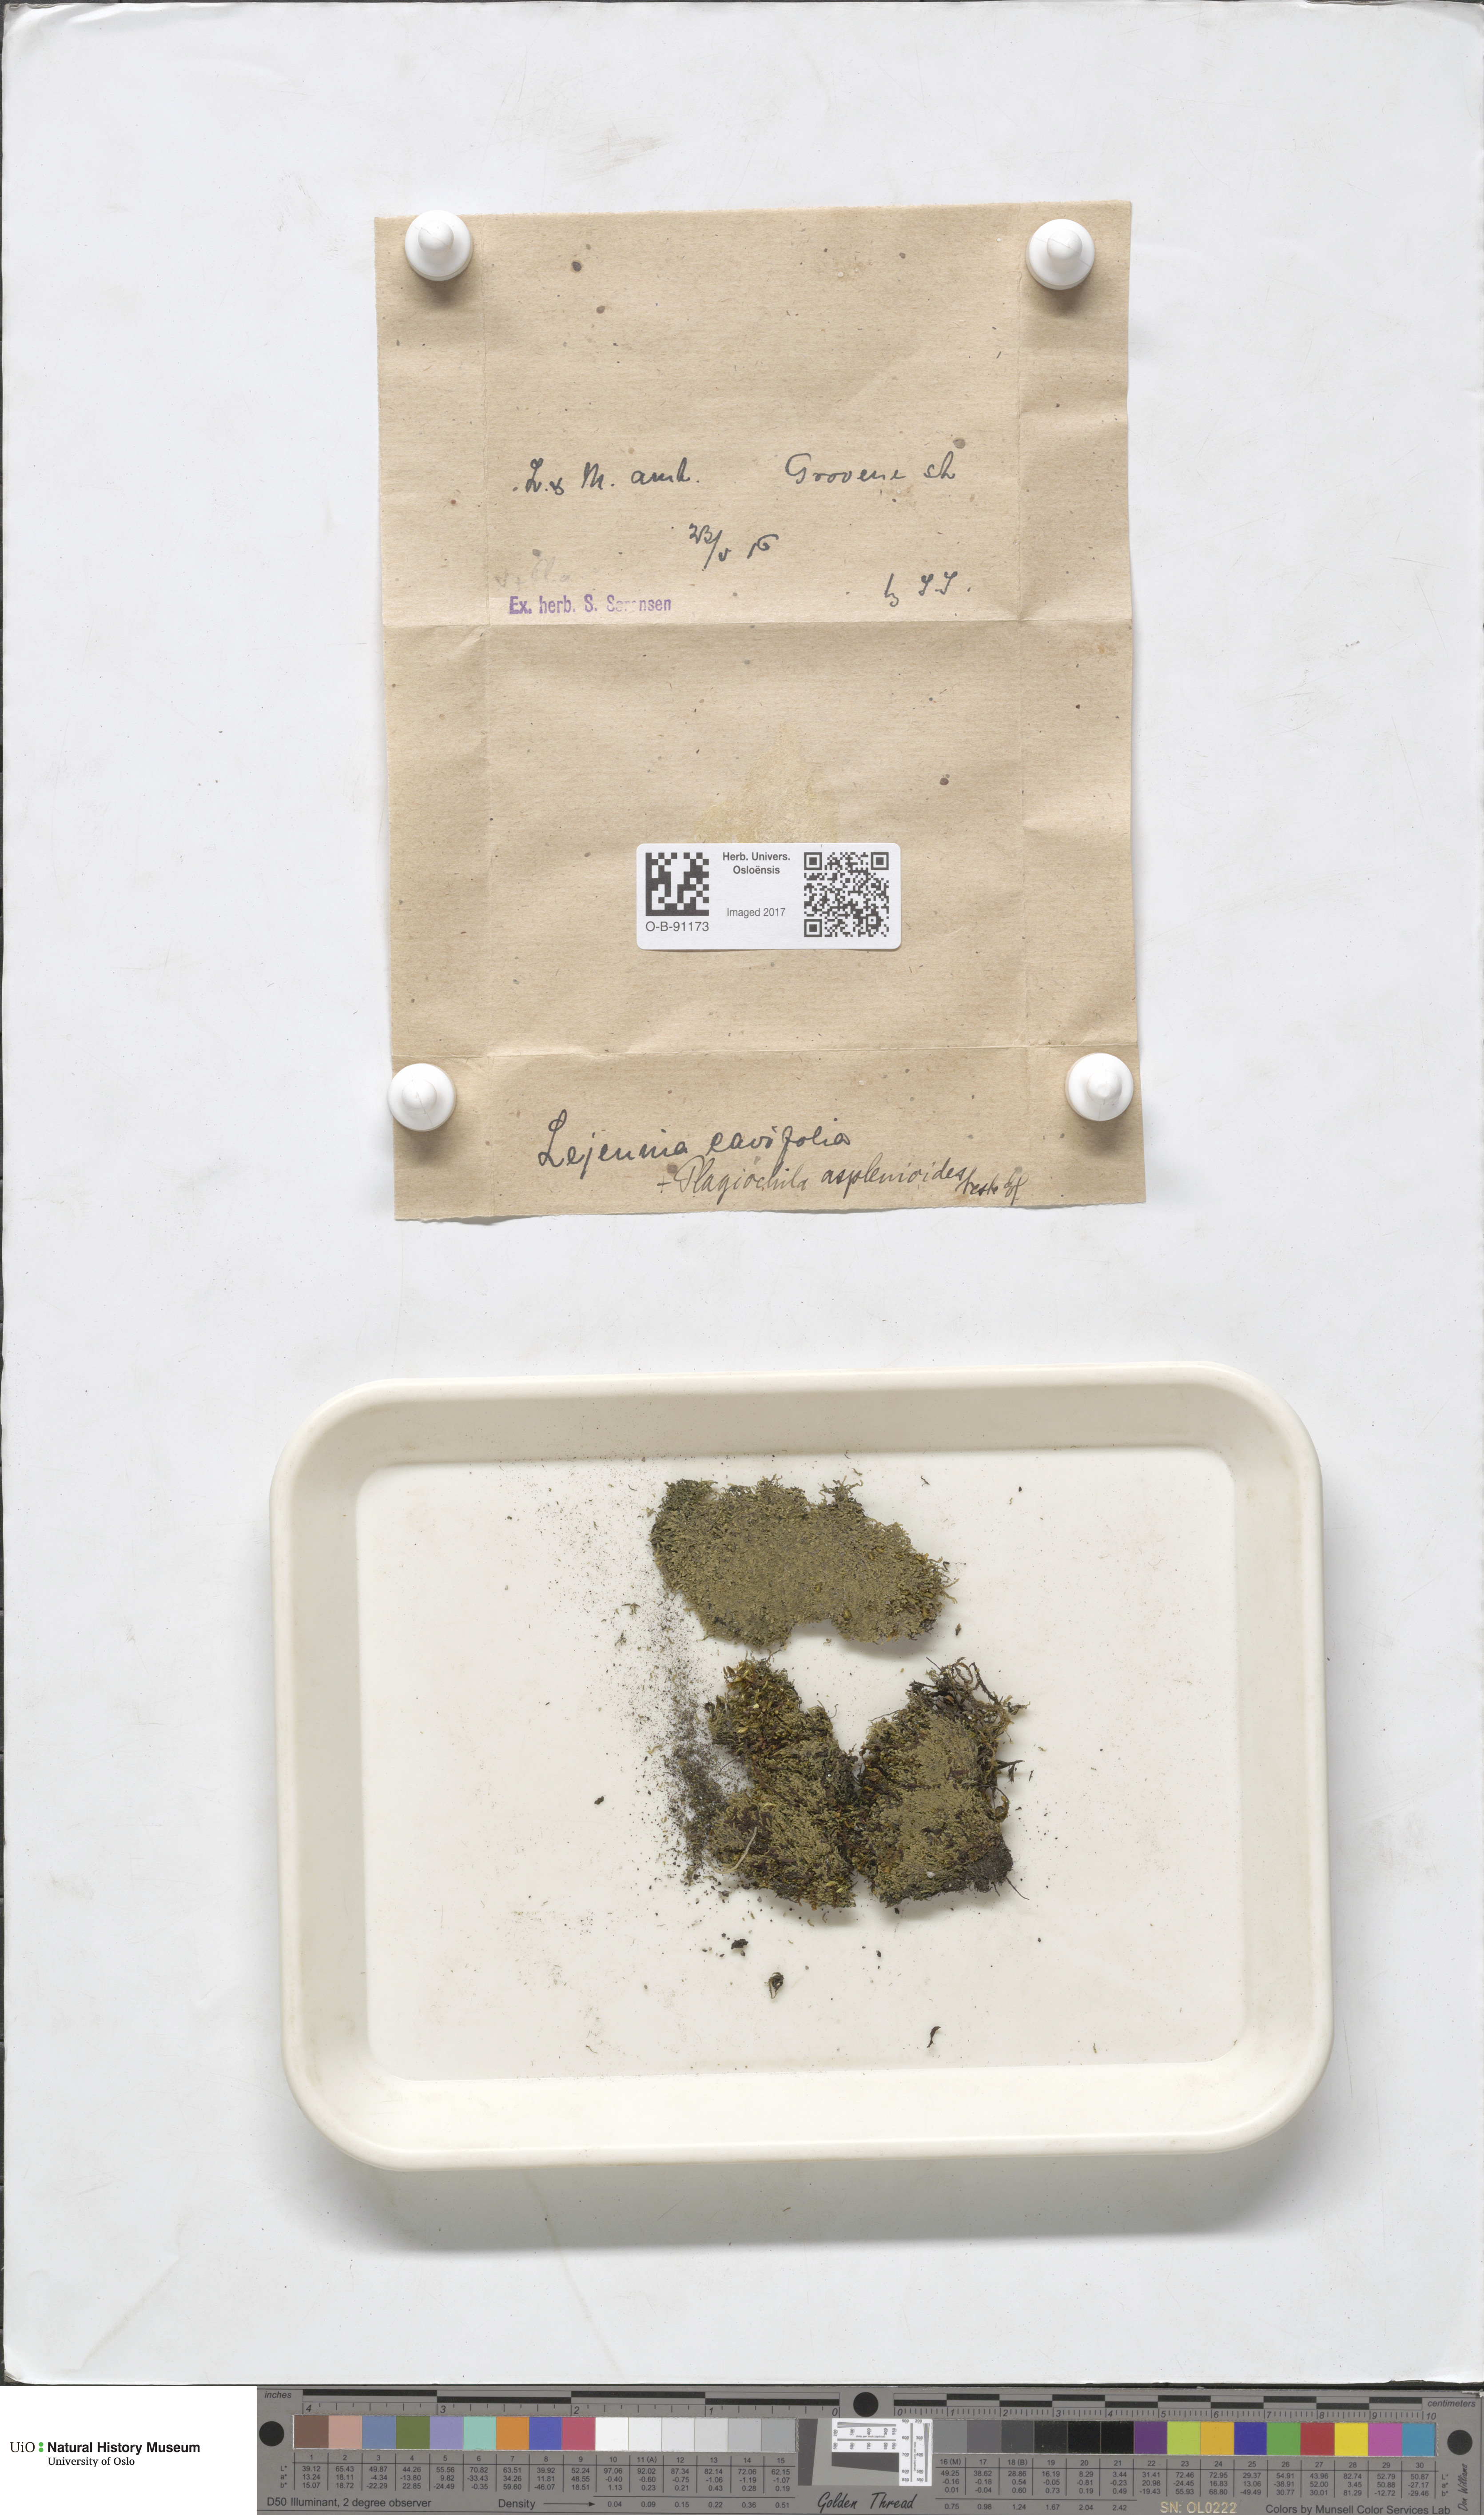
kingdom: Plantae
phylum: Marchantiophyta
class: Jungermanniopsida
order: Porellales
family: Lejeuneaceae
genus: Lejeunea
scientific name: Lejeunea cavifolia
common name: Least pouncewort
